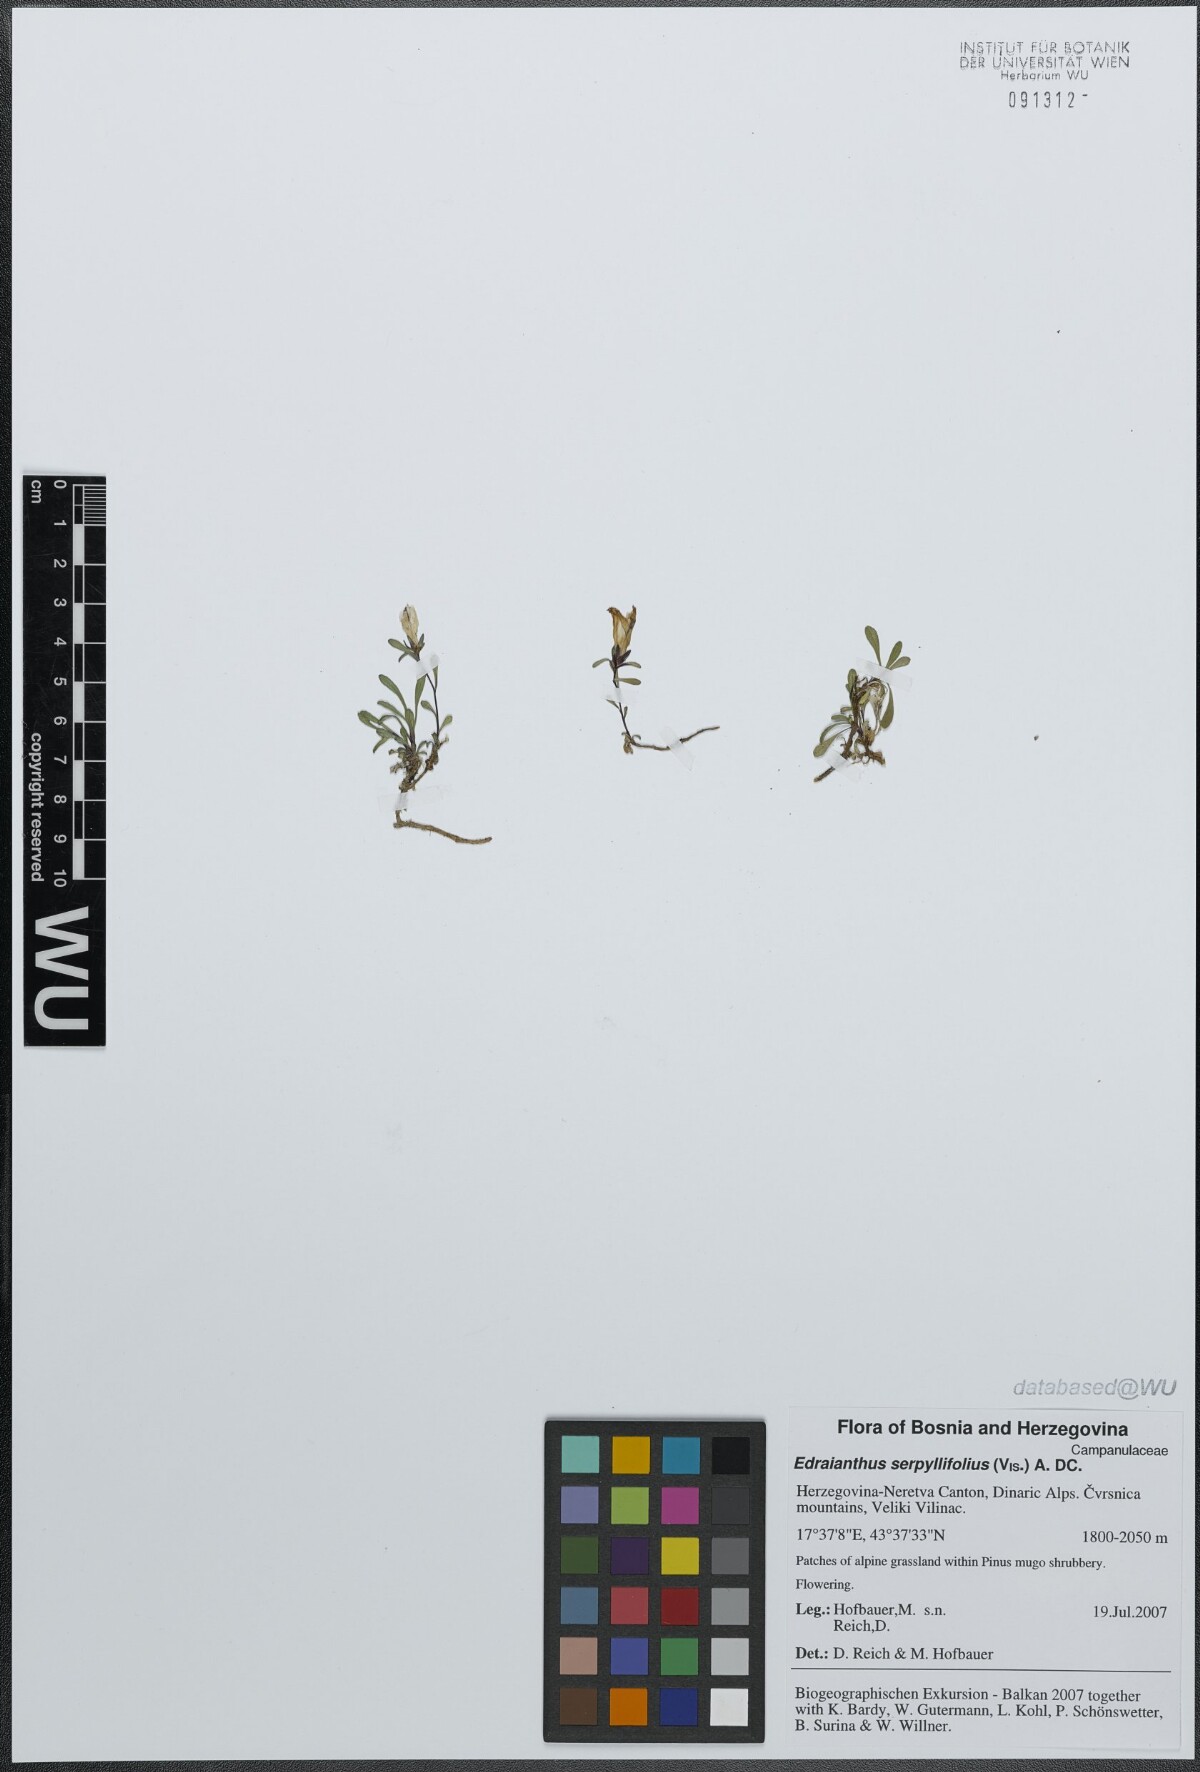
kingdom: Plantae
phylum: Tracheophyta
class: Magnoliopsida
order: Asterales
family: Campanulaceae
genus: Edraianthus
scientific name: Edraianthus serpyllifolius
